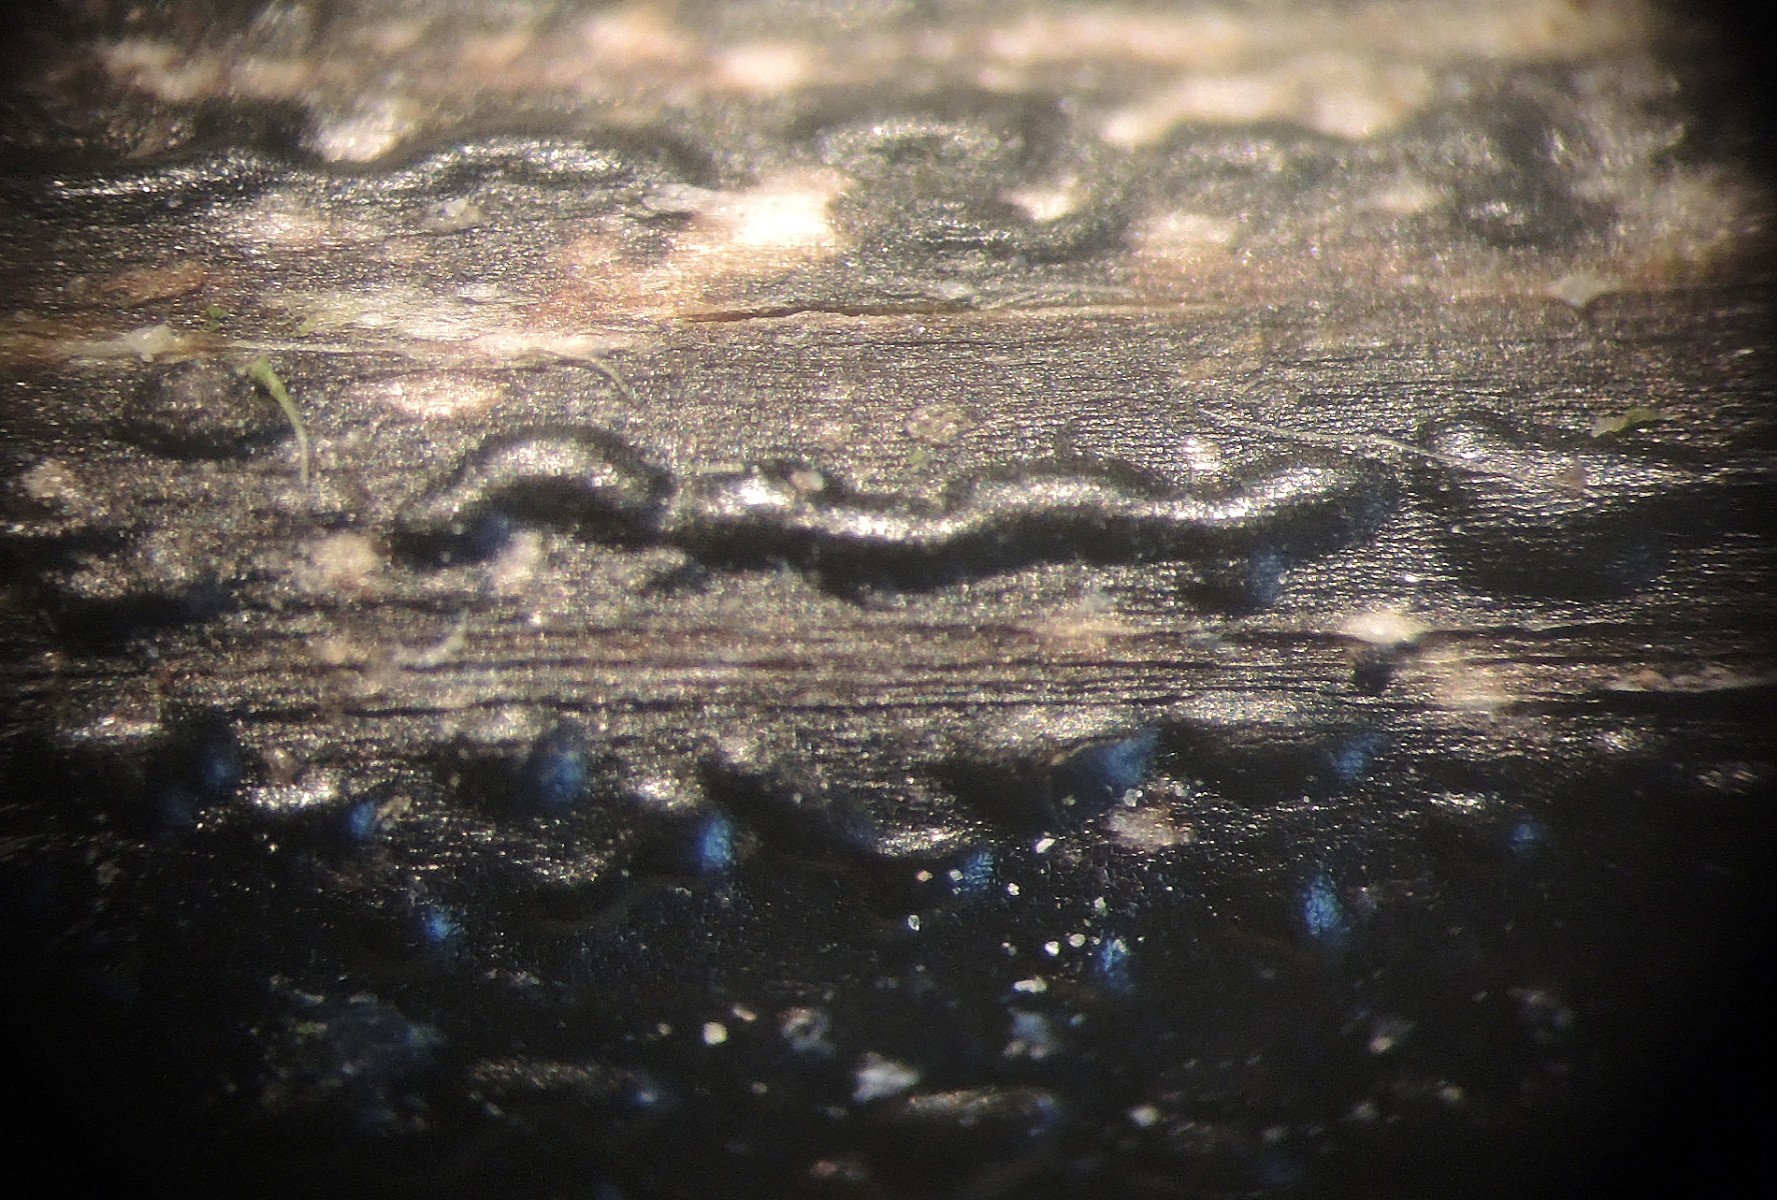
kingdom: Fungi
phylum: Ascomycota
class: Sordariomycetes
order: Diaporthales
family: Diaporthaceae
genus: Diaporthopsis
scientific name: Diaporthopsis urticae
